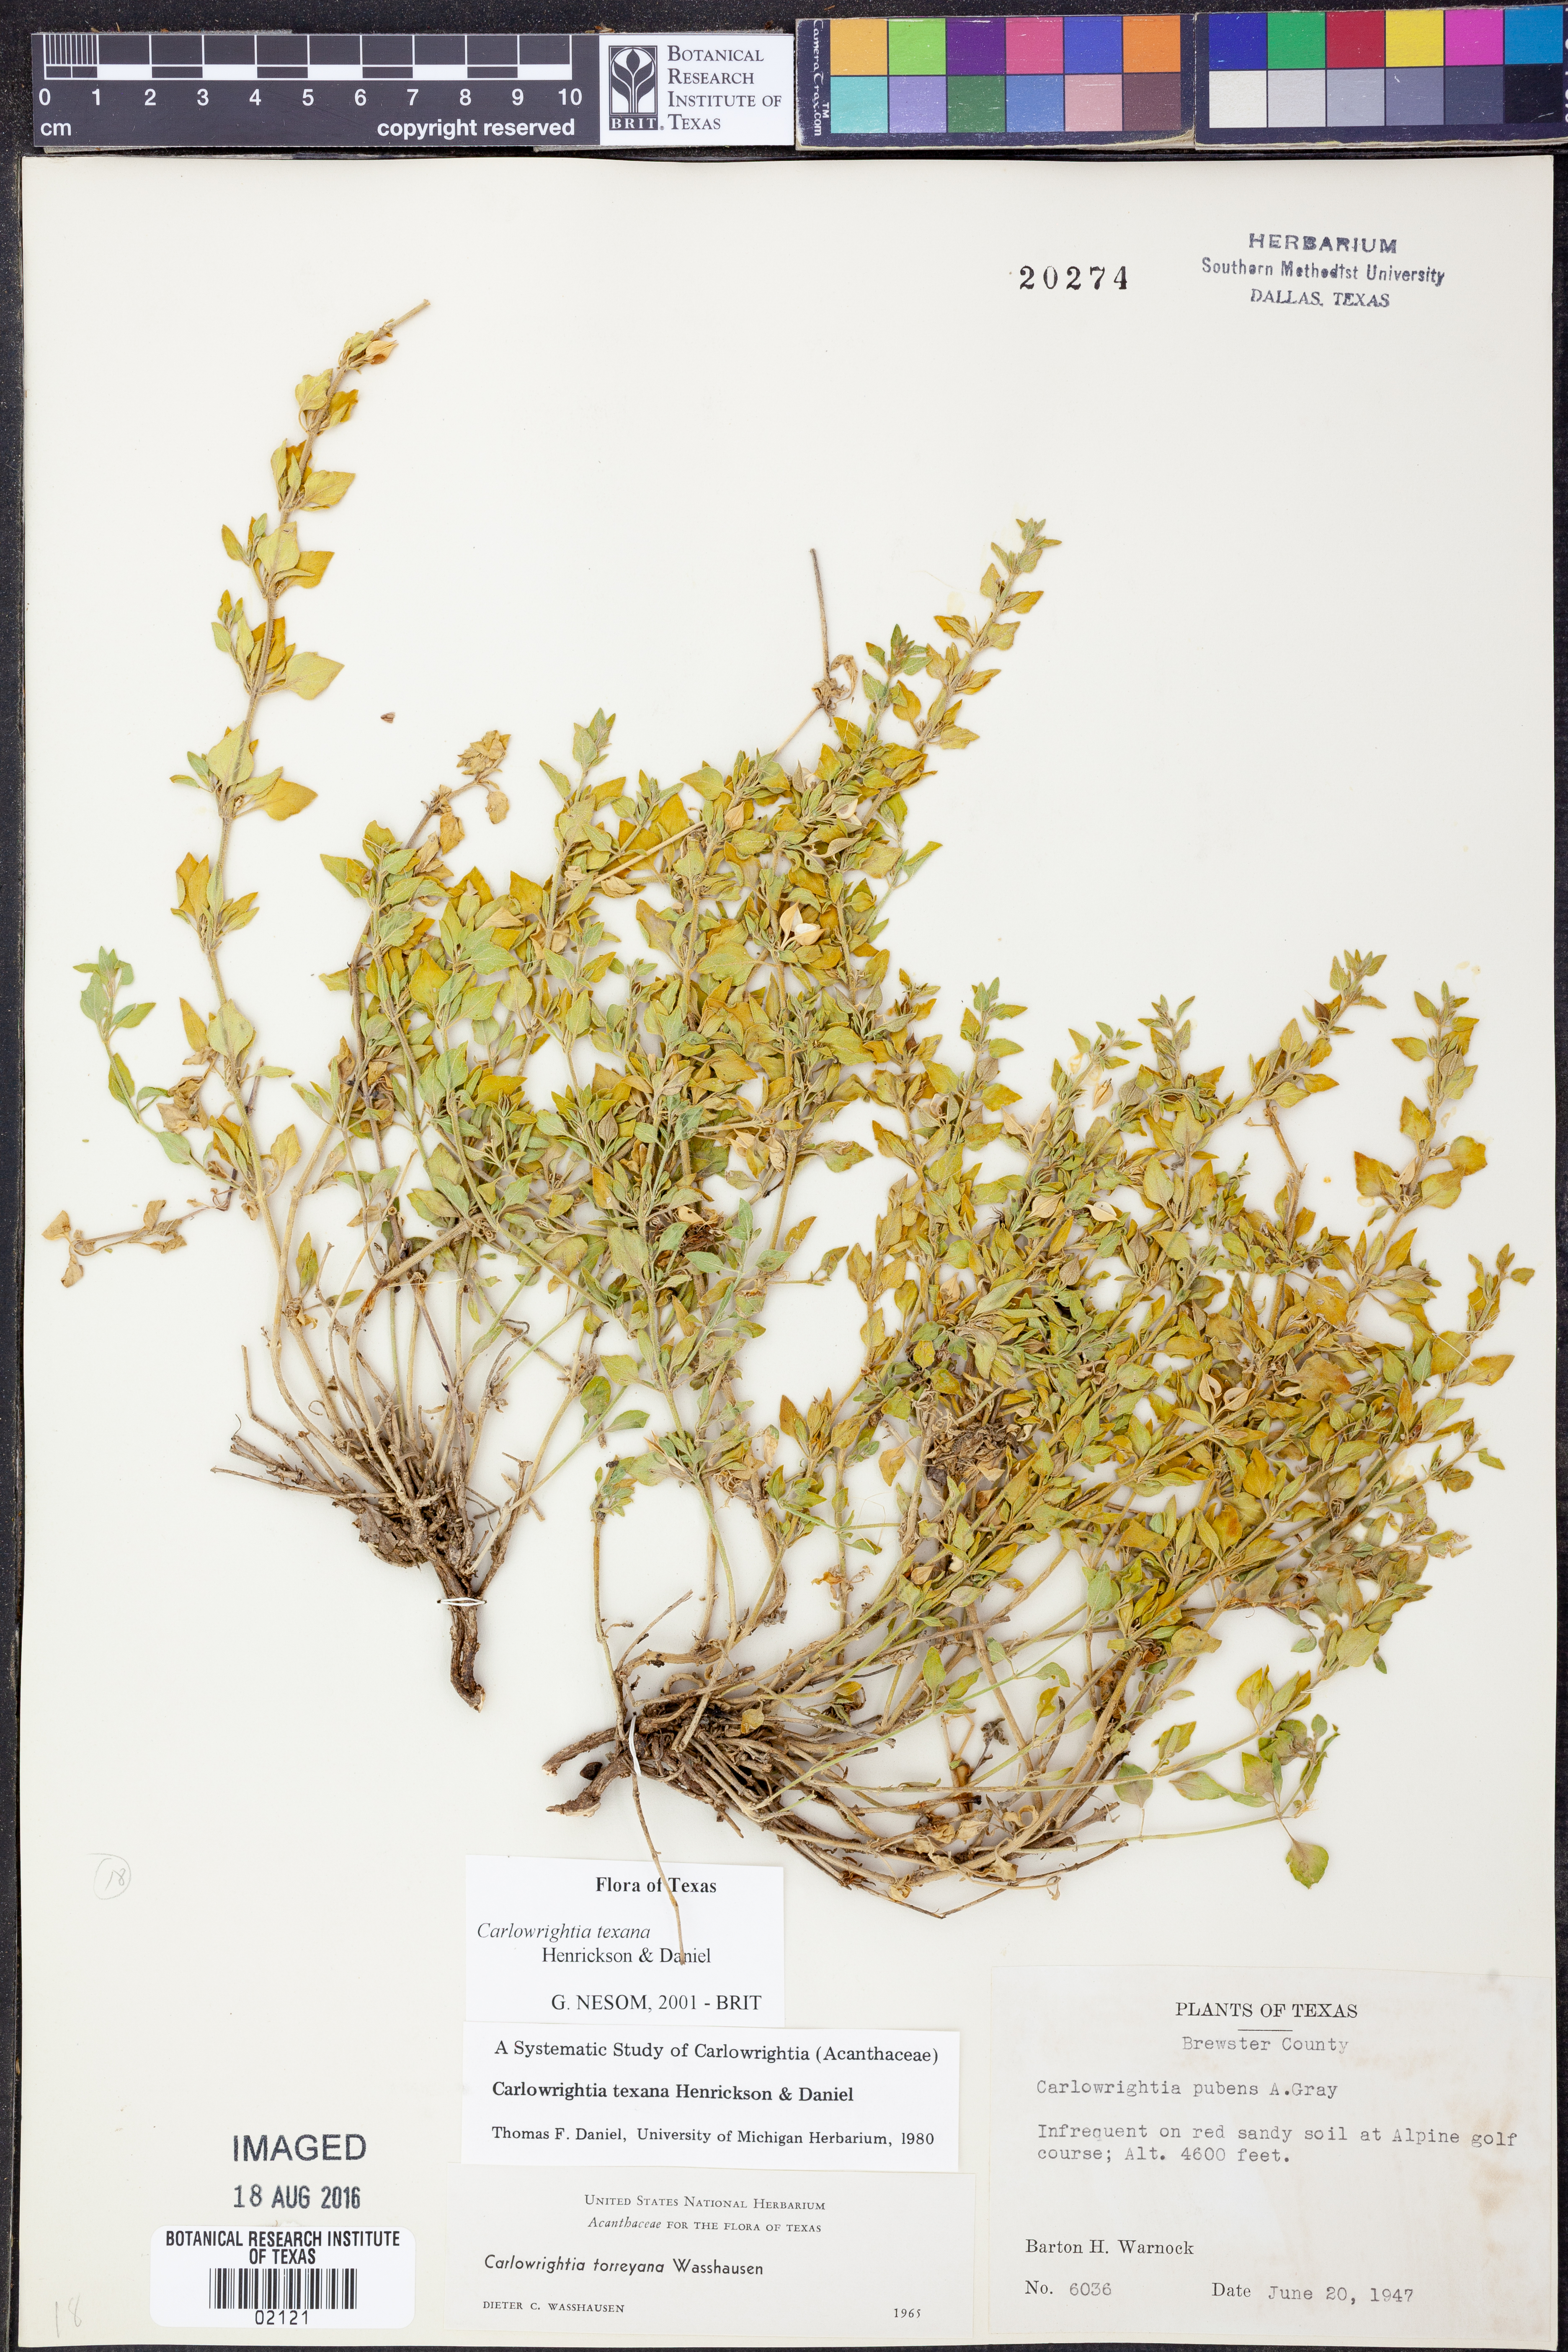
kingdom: Plantae
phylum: Tracheophyta
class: Magnoliopsida
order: Lamiales
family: Acanthaceae
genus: Carlowrightia
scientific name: Carlowrightia texana
